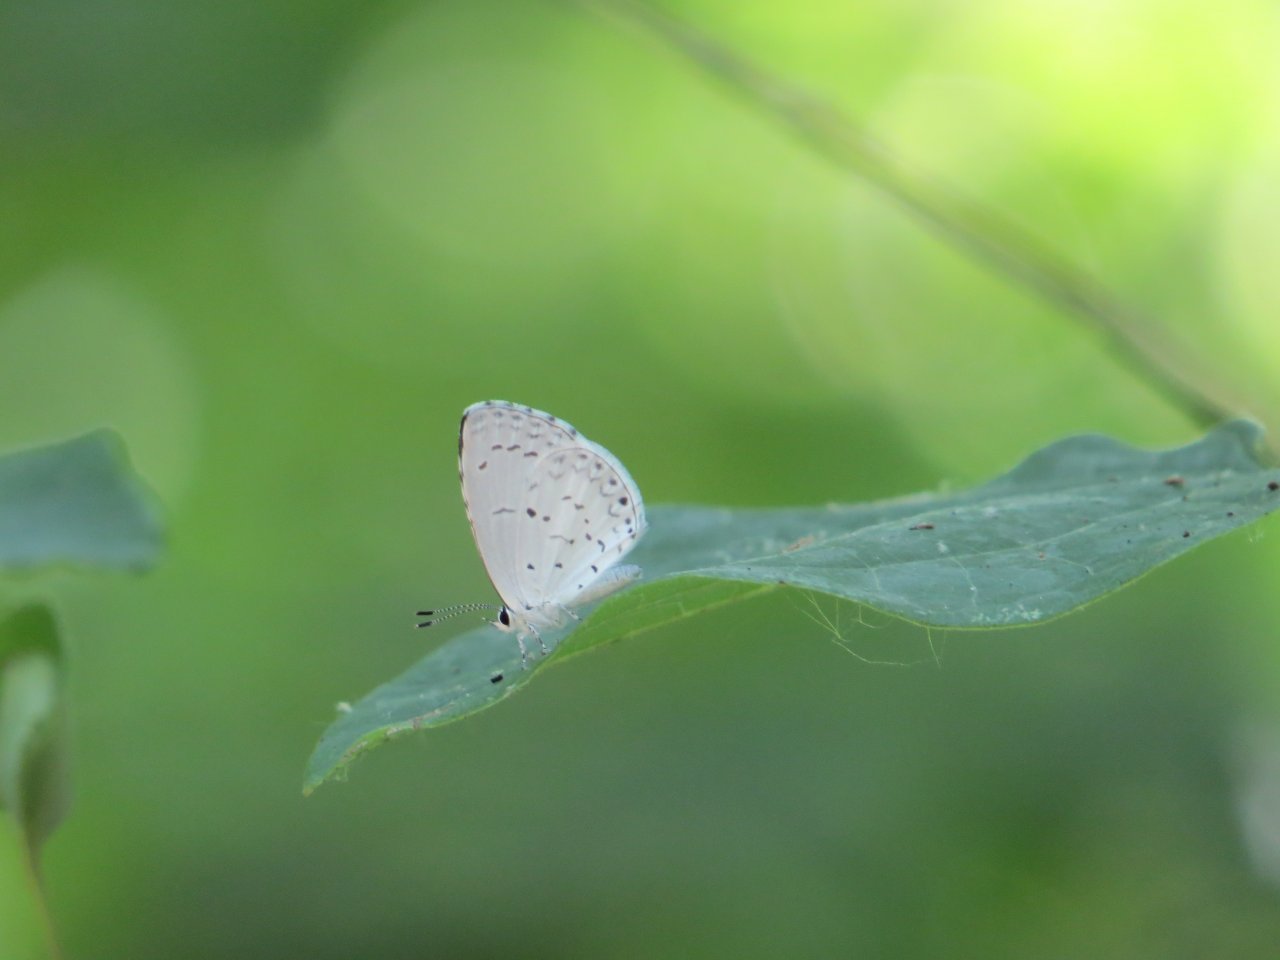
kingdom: Animalia
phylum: Arthropoda
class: Insecta
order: Lepidoptera
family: Lycaenidae
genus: Cyaniris
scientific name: Cyaniris neglecta
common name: Summer Azure
